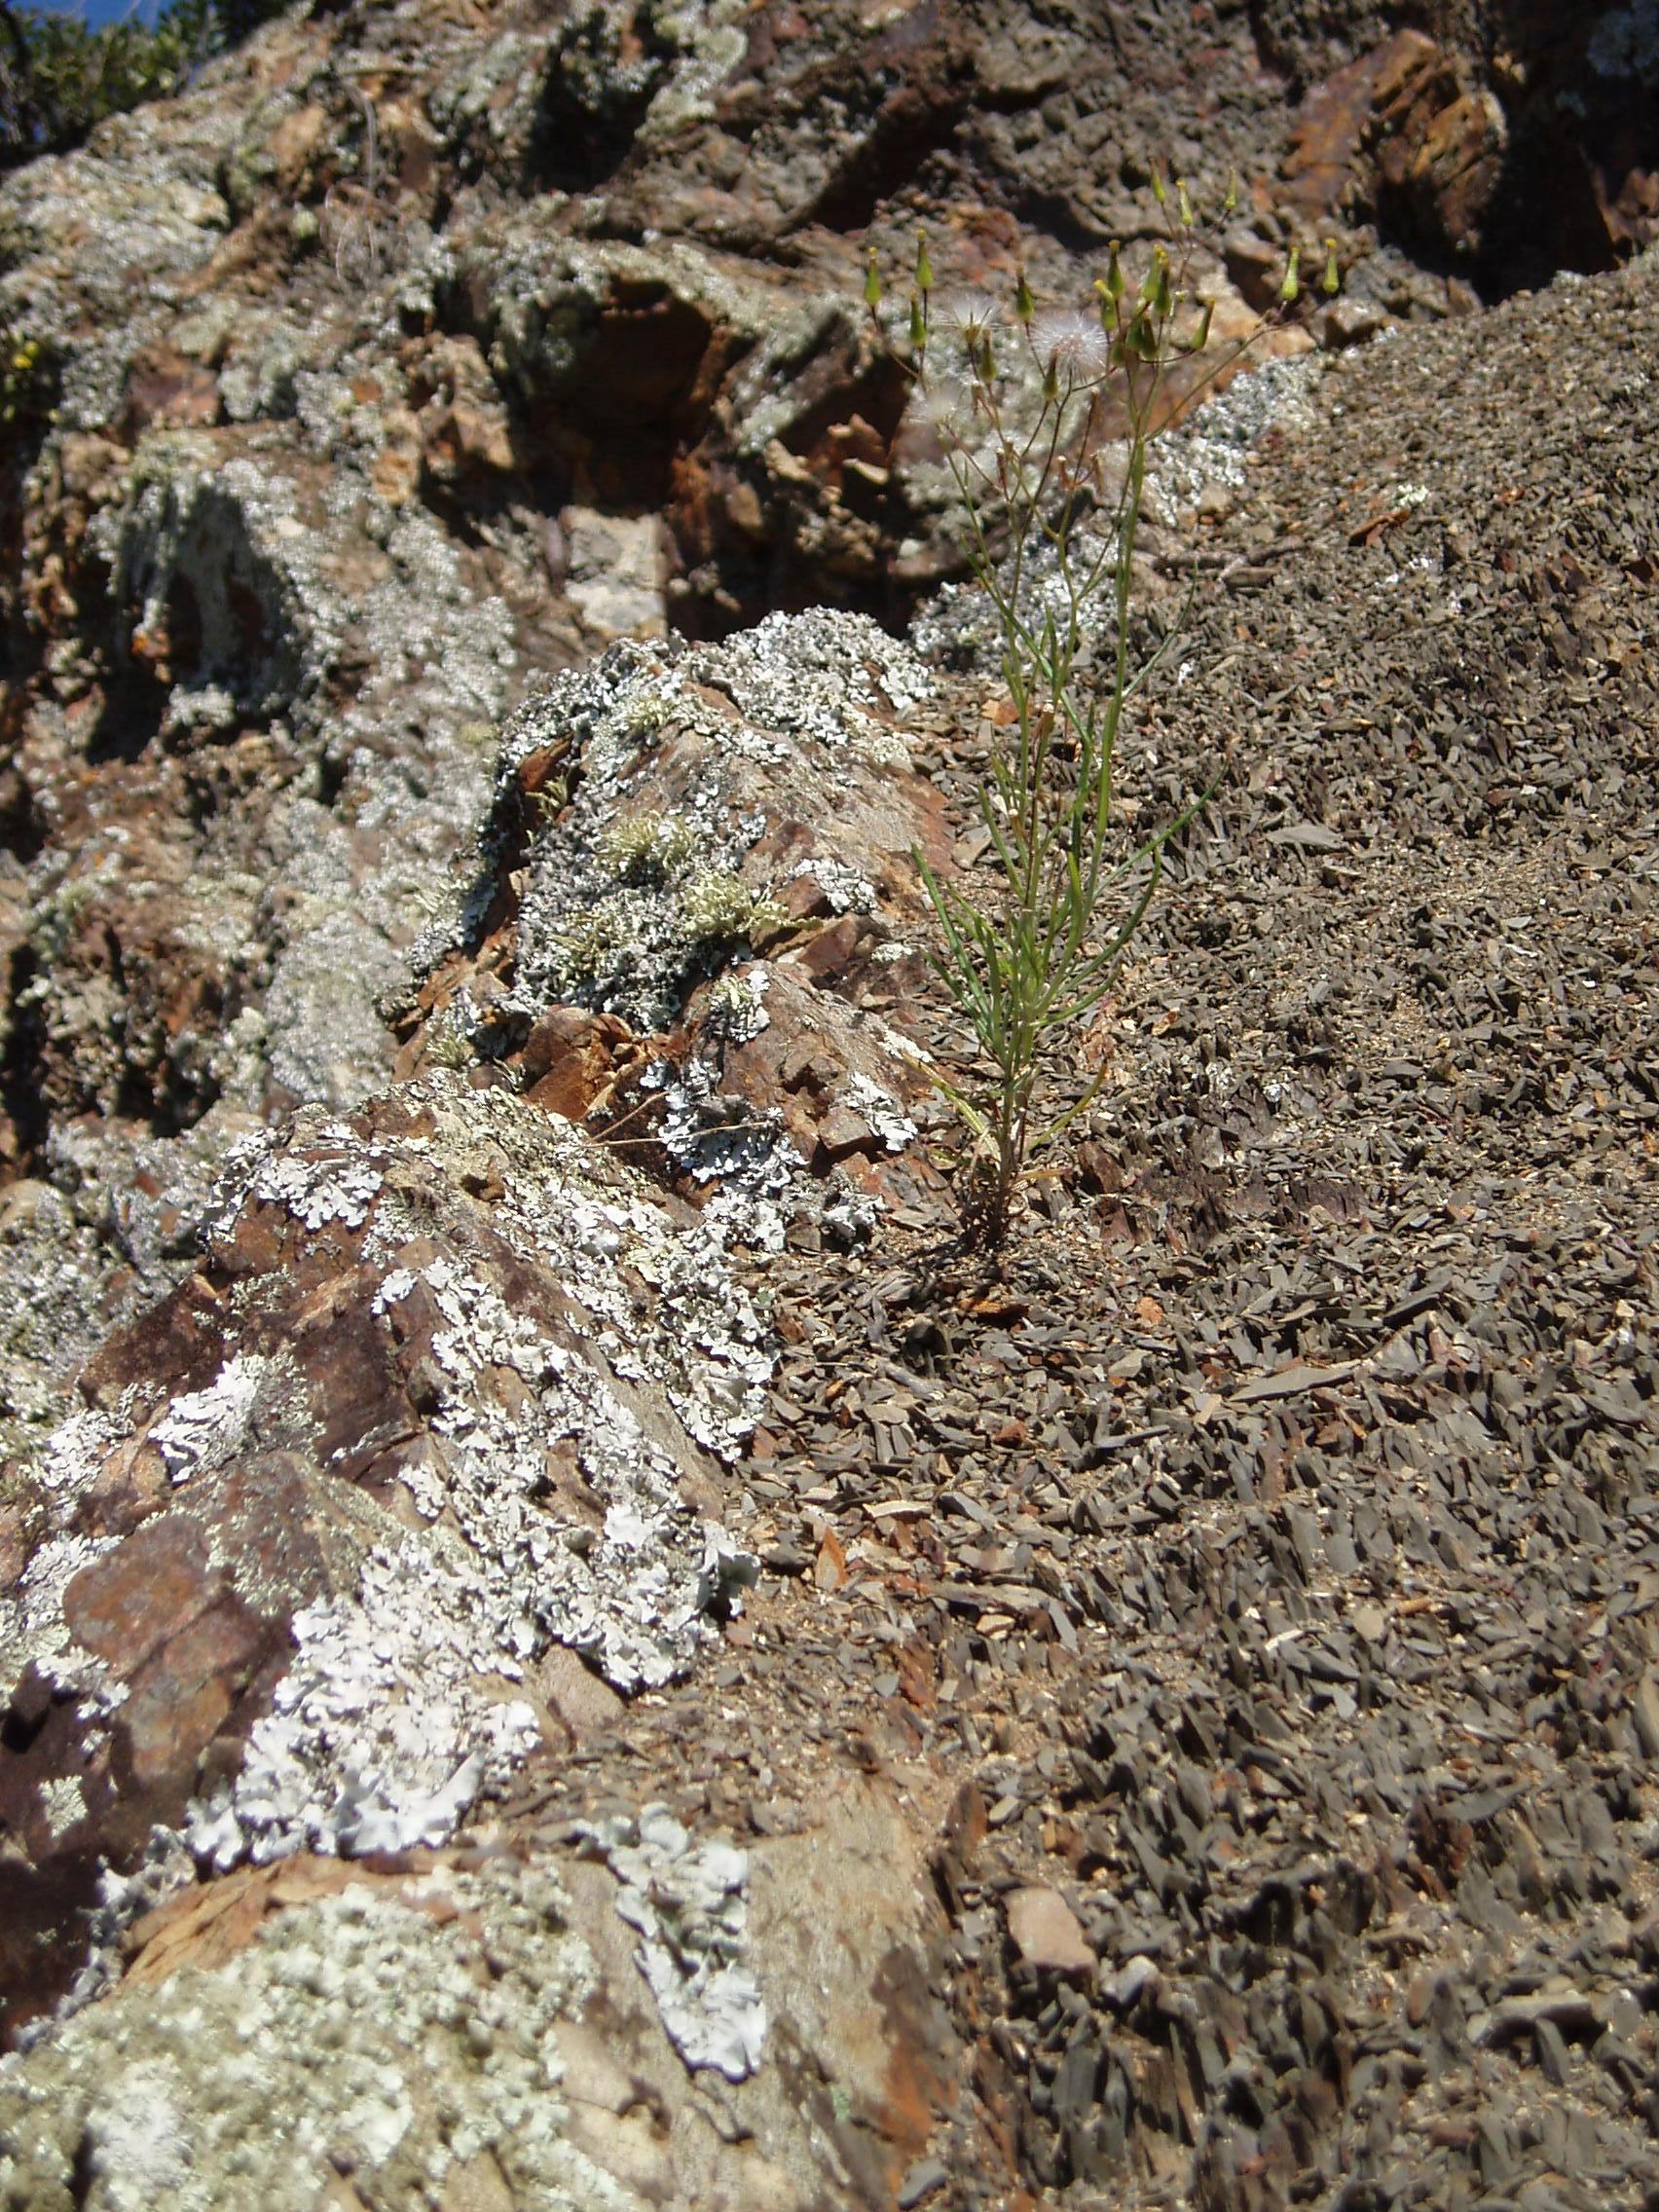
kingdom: Plantae
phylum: Tracheophyta
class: Magnoliopsida
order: Asterales
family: Asteraceae
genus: Senecio
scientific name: Senecio quadridentatus
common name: Cotton fireweed
